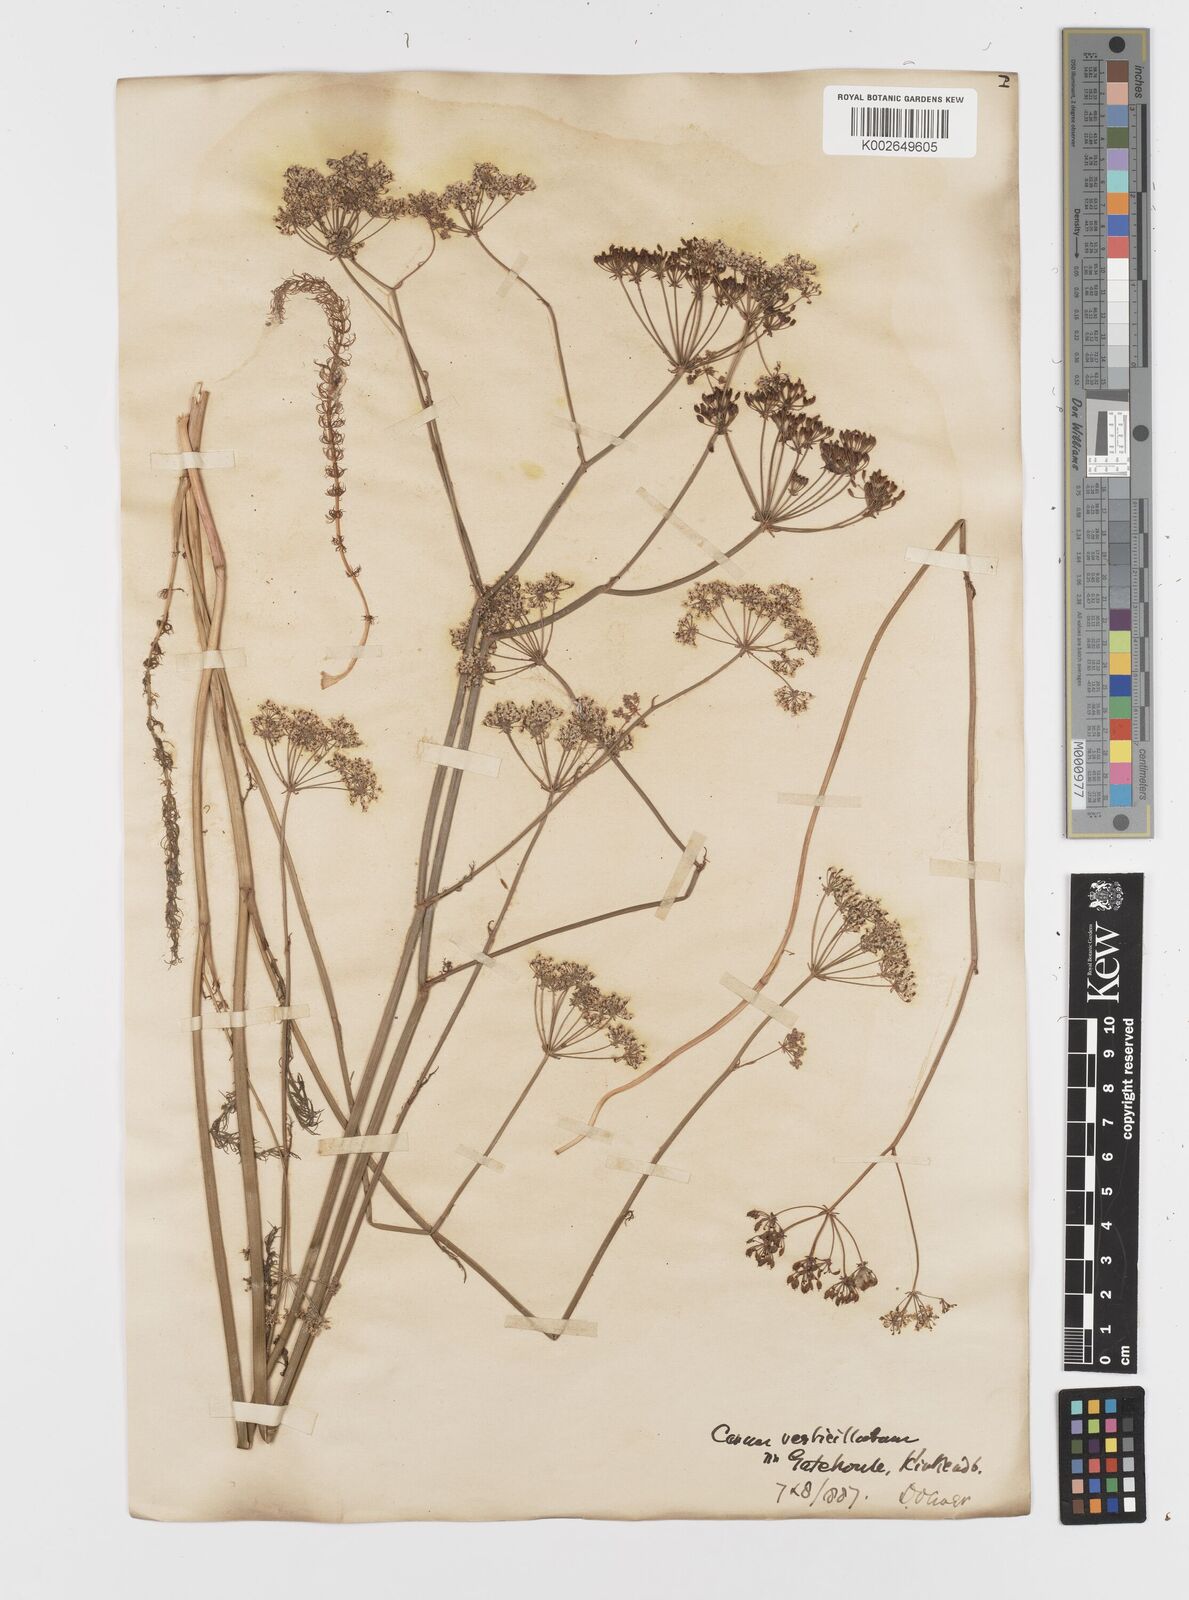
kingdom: Plantae
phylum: Tracheophyta
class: Magnoliopsida
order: Apiales
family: Apiaceae
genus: Trocdaris
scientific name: Trocdaris verticillatum
